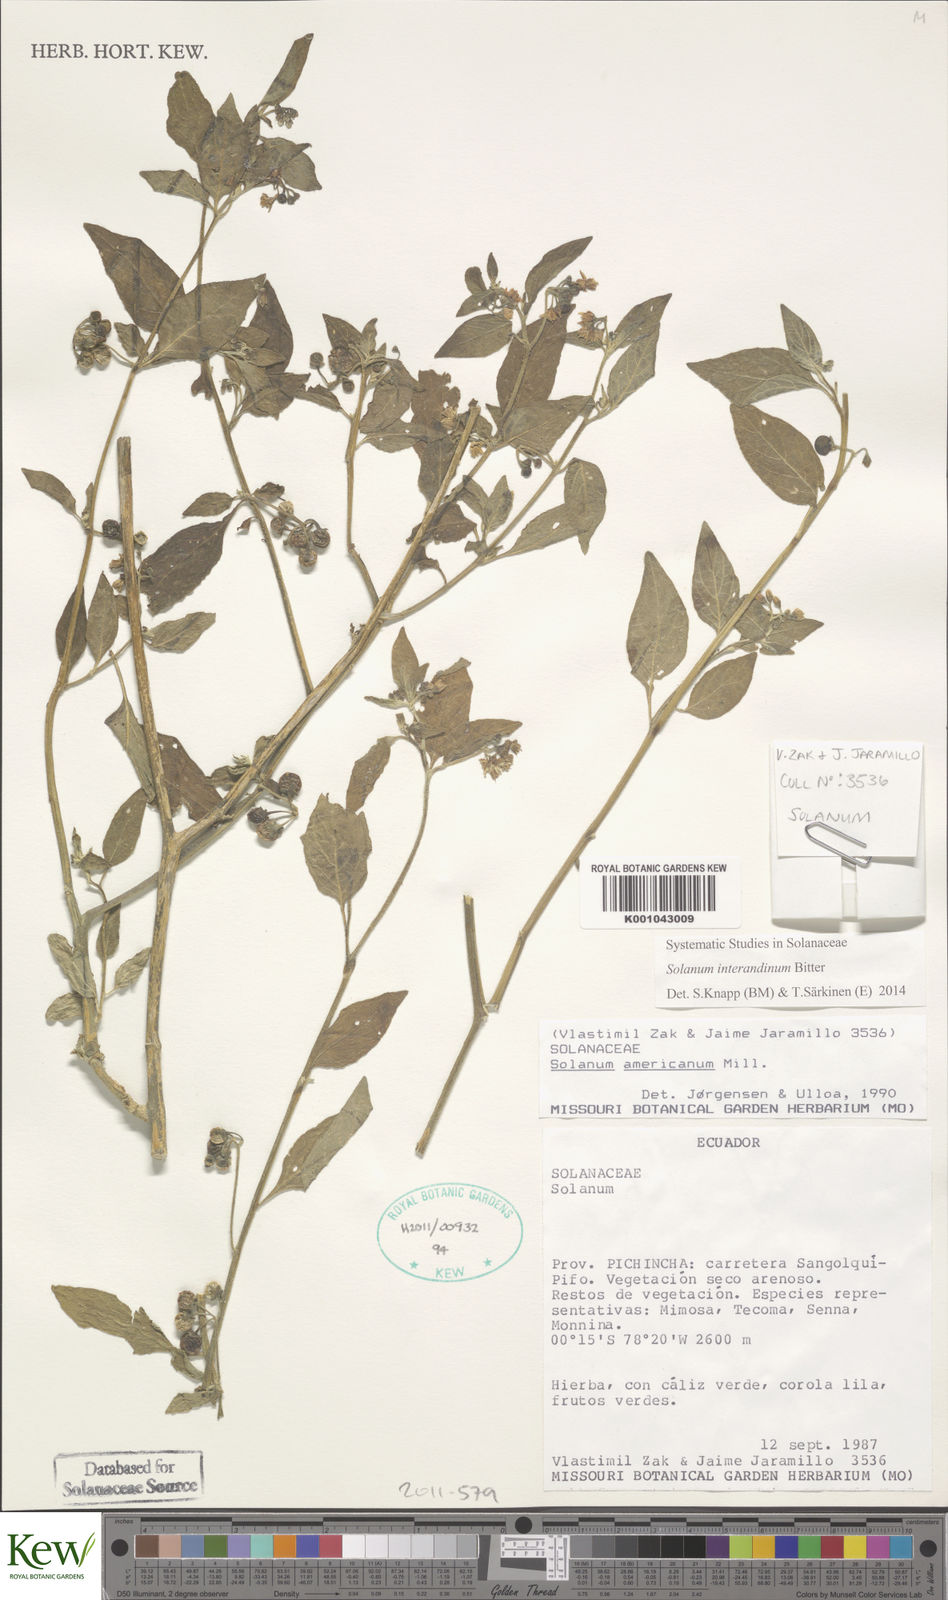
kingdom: Plantae
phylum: Tracheophyta
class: Magnoliopsida
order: Solanales
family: Solanaceae
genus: Solanum
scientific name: Solanum interandinum
